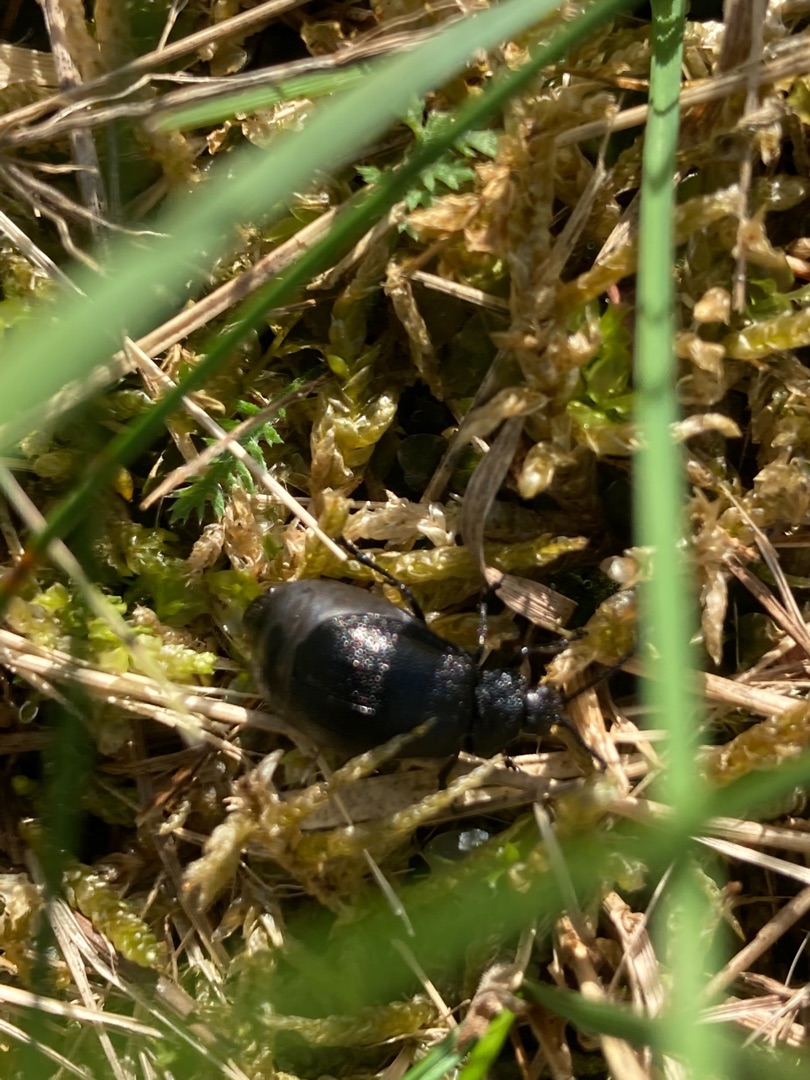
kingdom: Animalia
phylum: Arthropoda
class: Insecta
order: Coleoptera
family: Chrysomelidae
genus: Galeruca
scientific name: Galeruca tanaceti
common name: Rejnfanbladbille
